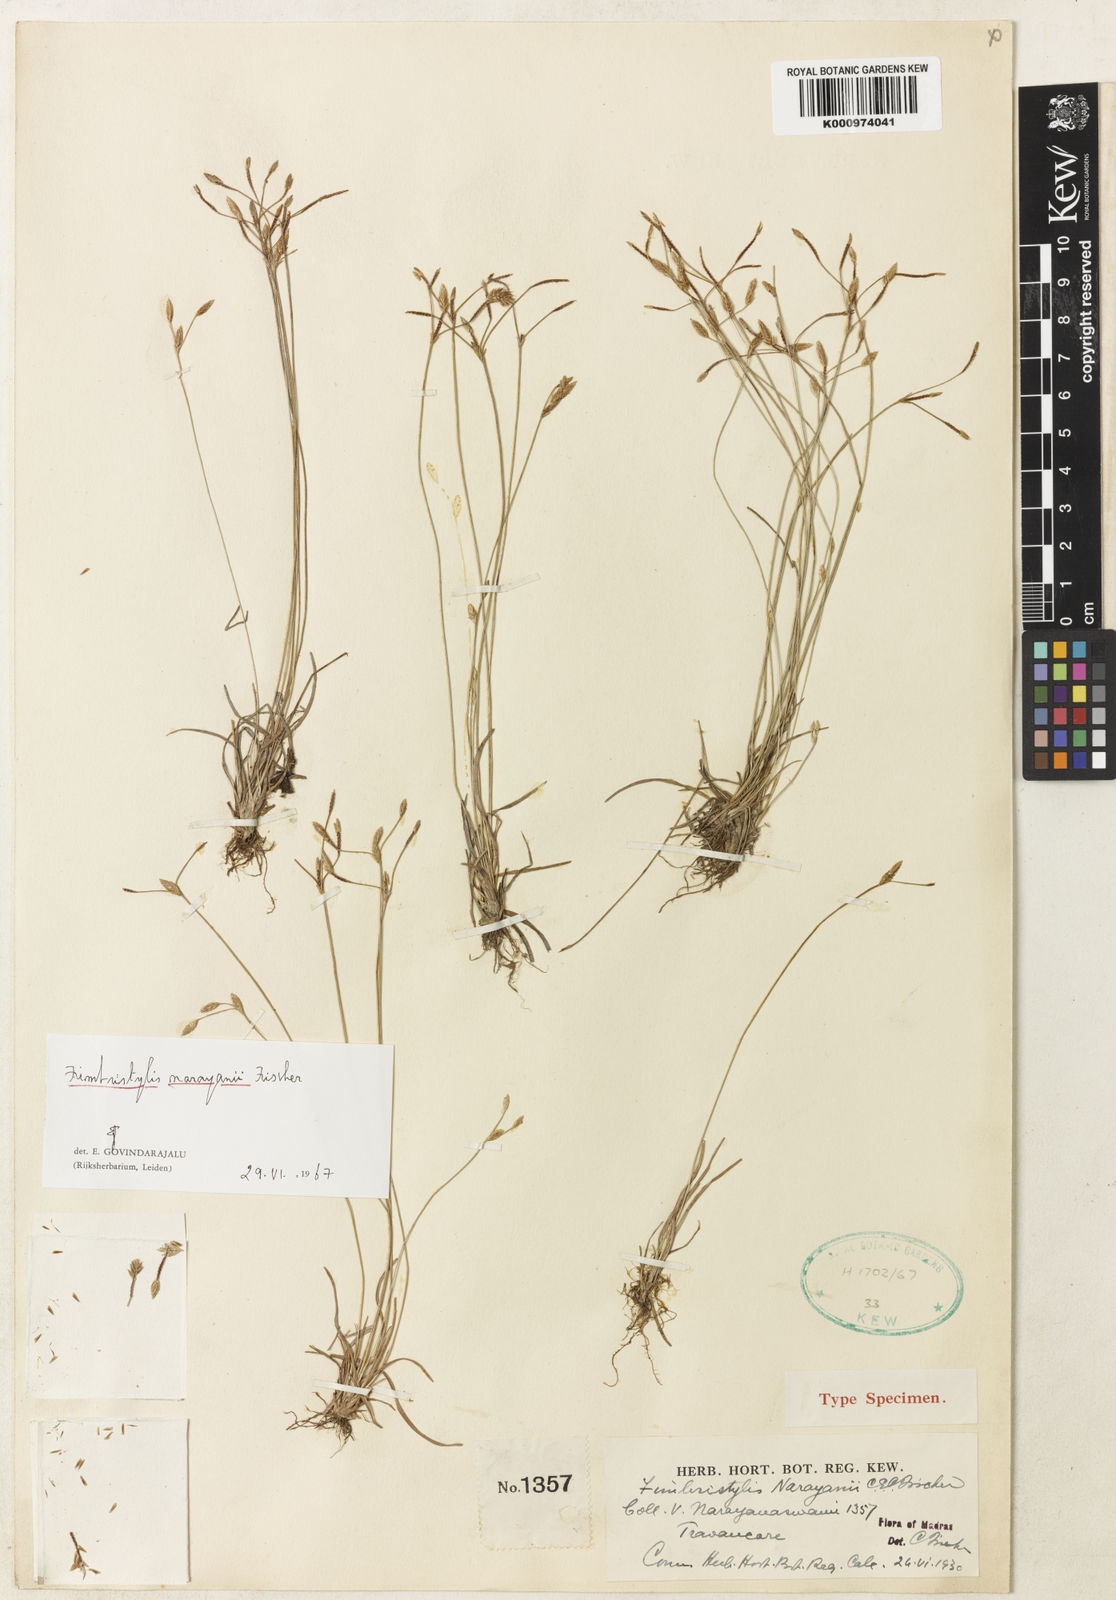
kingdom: Plantae
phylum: Tracheophyta
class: Liliopsida
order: Poales
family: Cyperaceae
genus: Fimbristylis
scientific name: Fimbristylis narayanii
